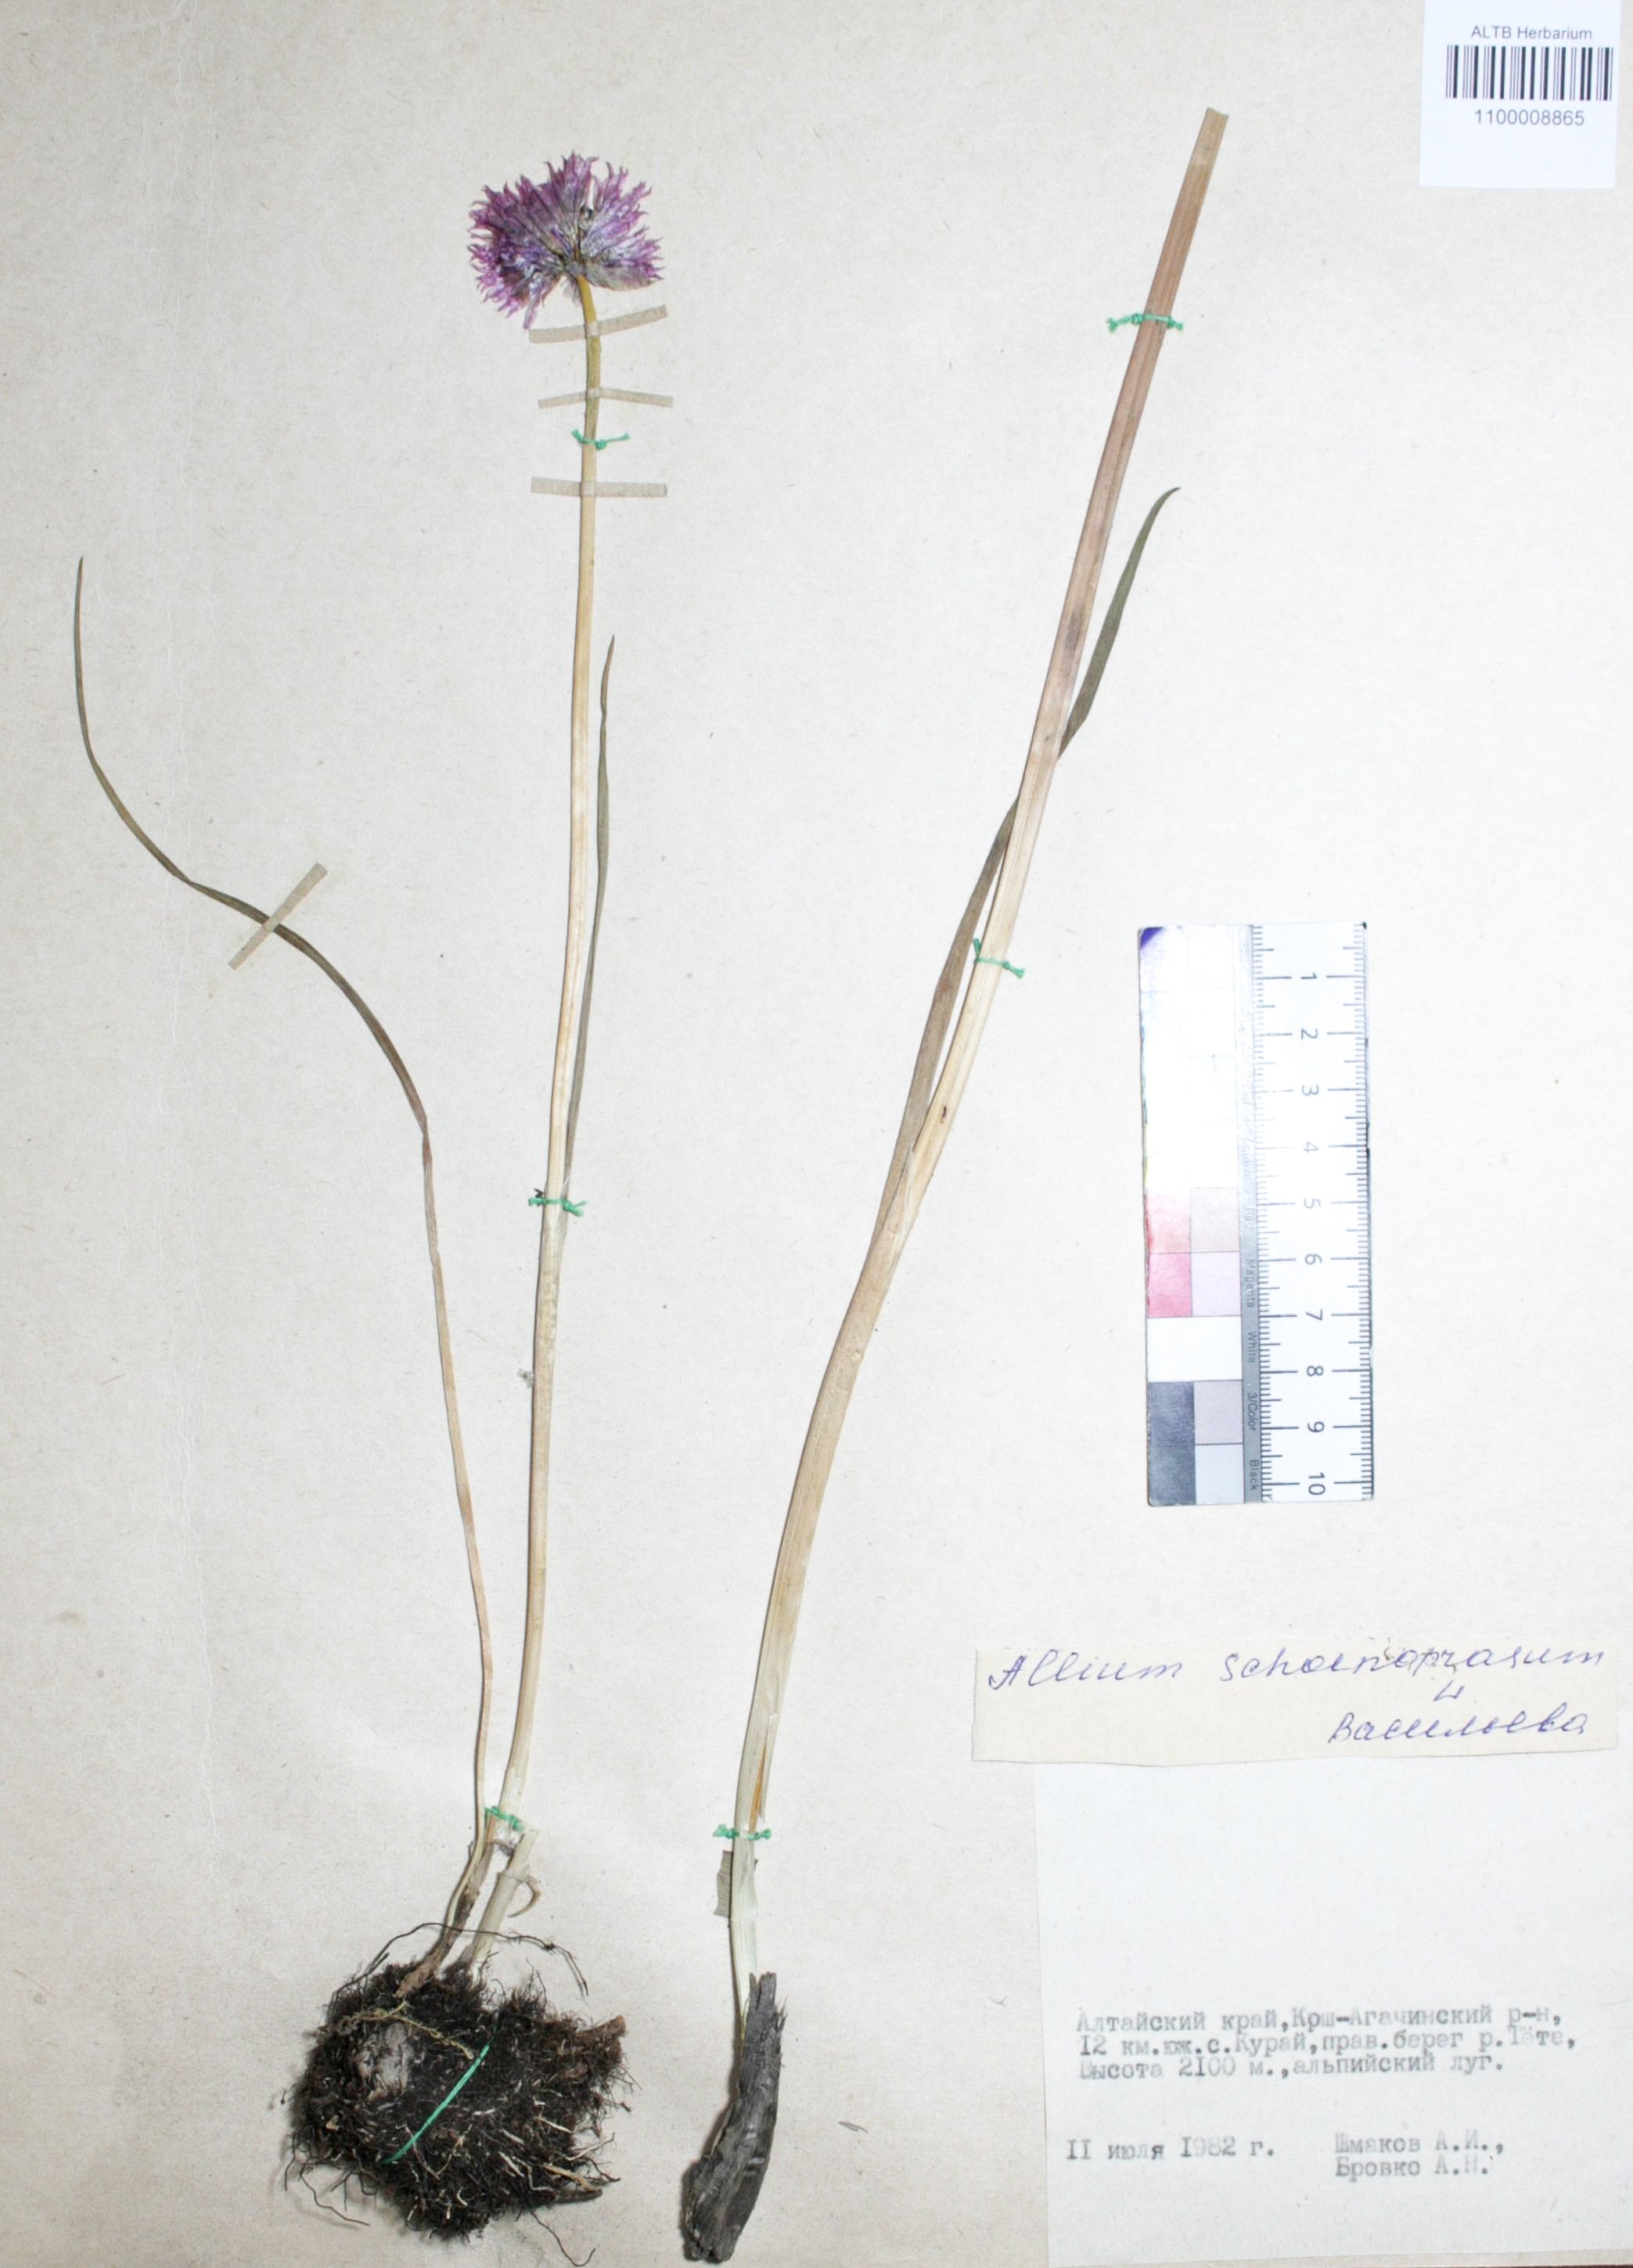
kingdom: Plantae
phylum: Tracheophyta
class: Liliopsida
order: Asparagales
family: Amaryllidaceae
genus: Allium
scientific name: Allium schoenoprasum
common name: Chives
